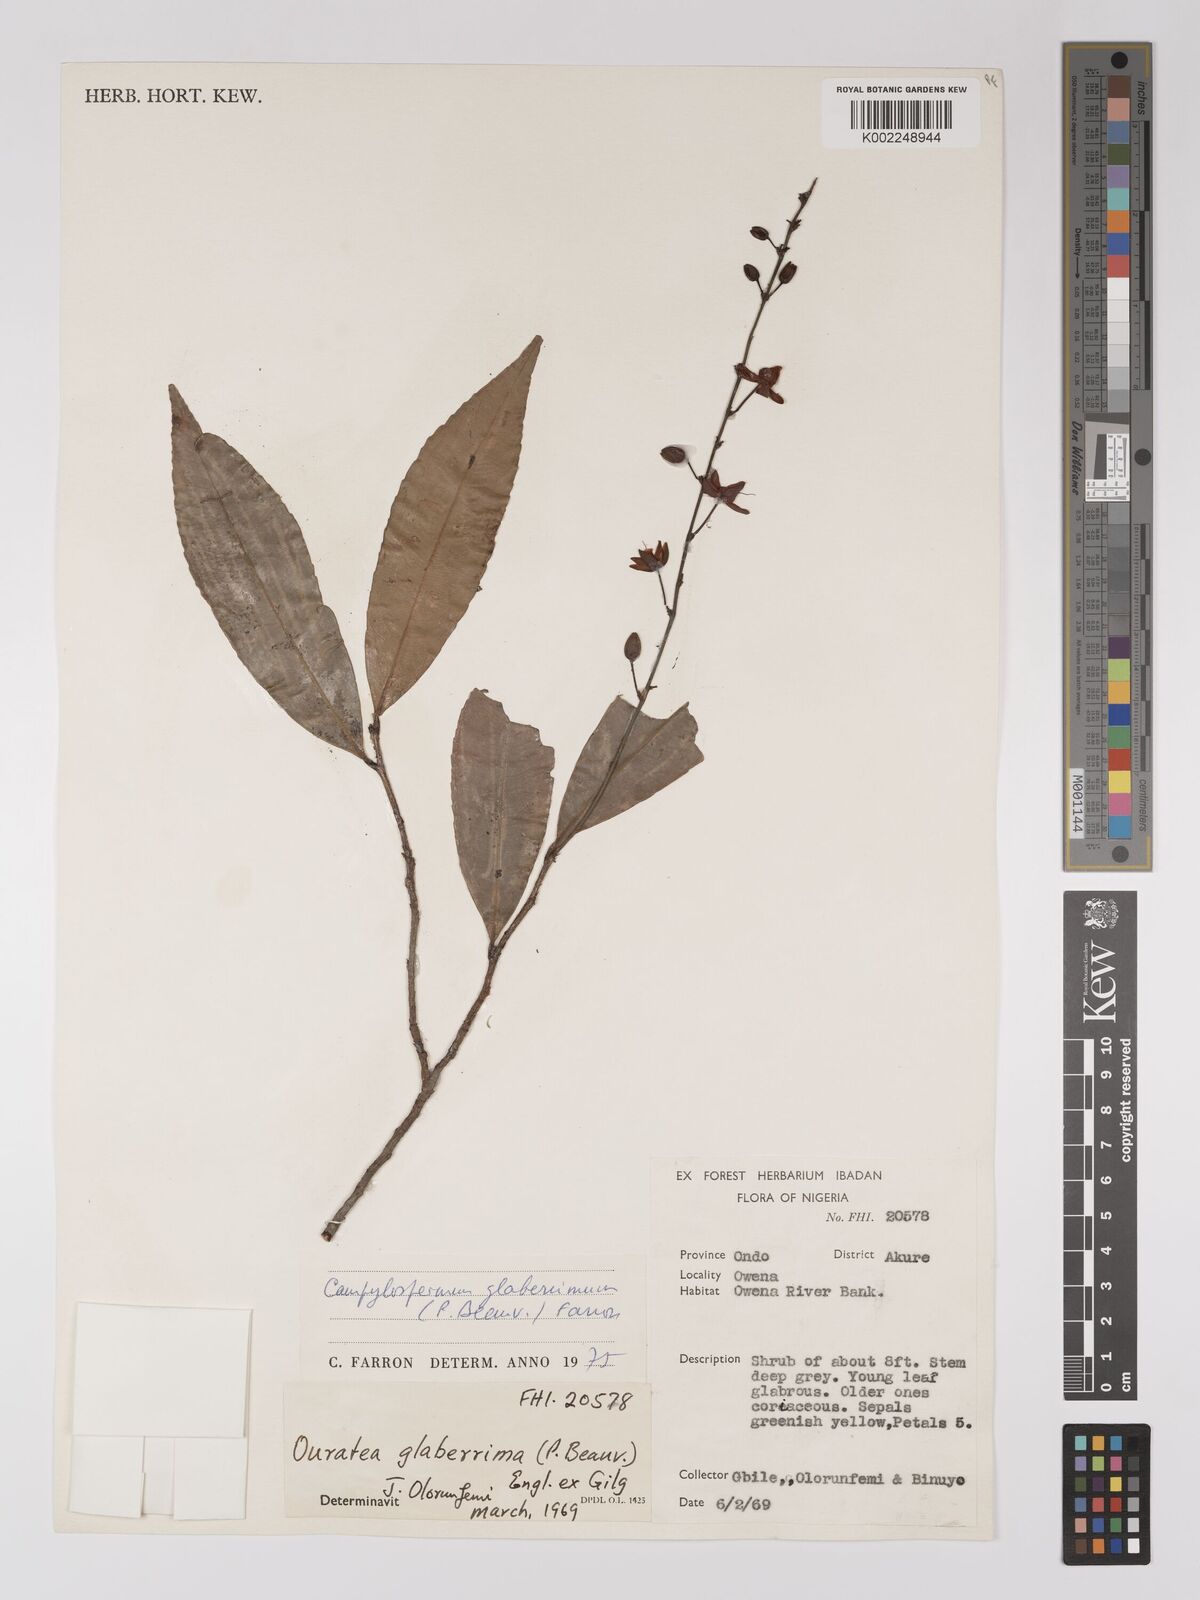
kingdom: Plantae
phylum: Tracheophyta
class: Magnoliopsida
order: Malpighiales
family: Ochnaceae
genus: Campylospermum
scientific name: Campylospermum glaberrimum
